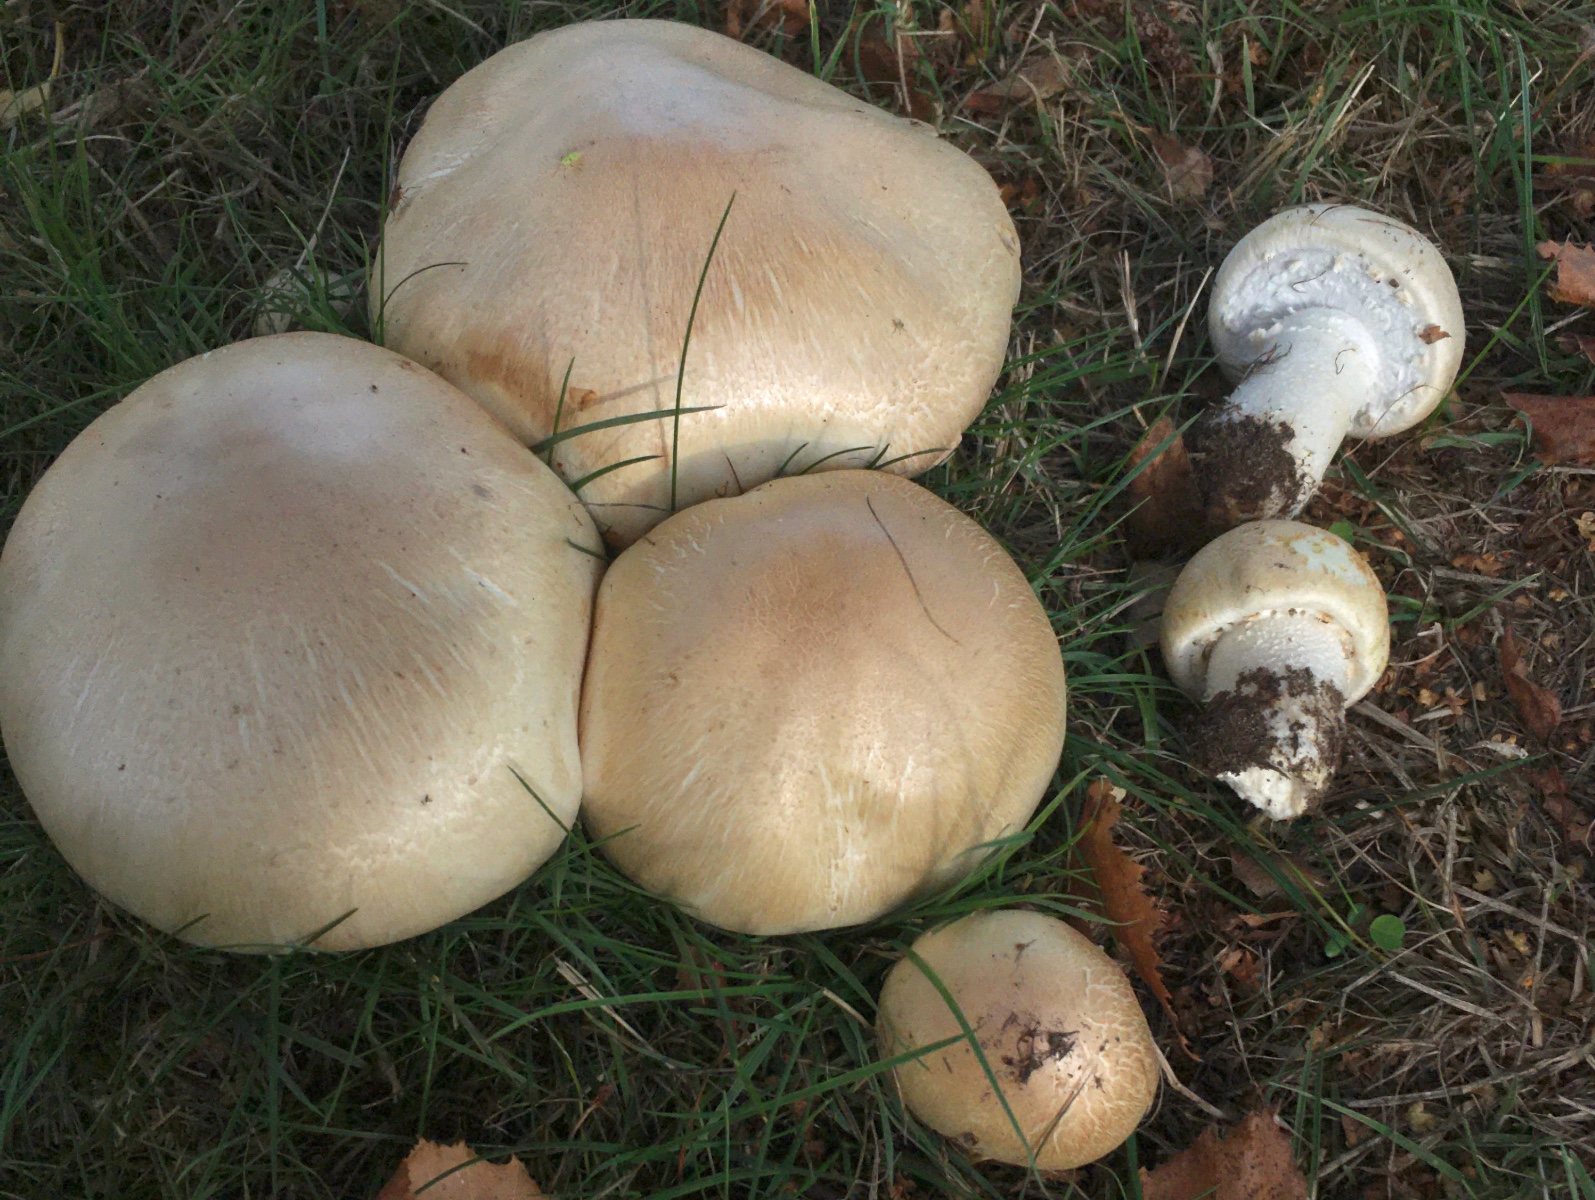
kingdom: Fungi
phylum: Basidiomycota
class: Agaricomycetes
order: Agaricales
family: Agaricaceae
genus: Agaricus
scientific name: Agaricus arvensis
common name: ager-champignon
